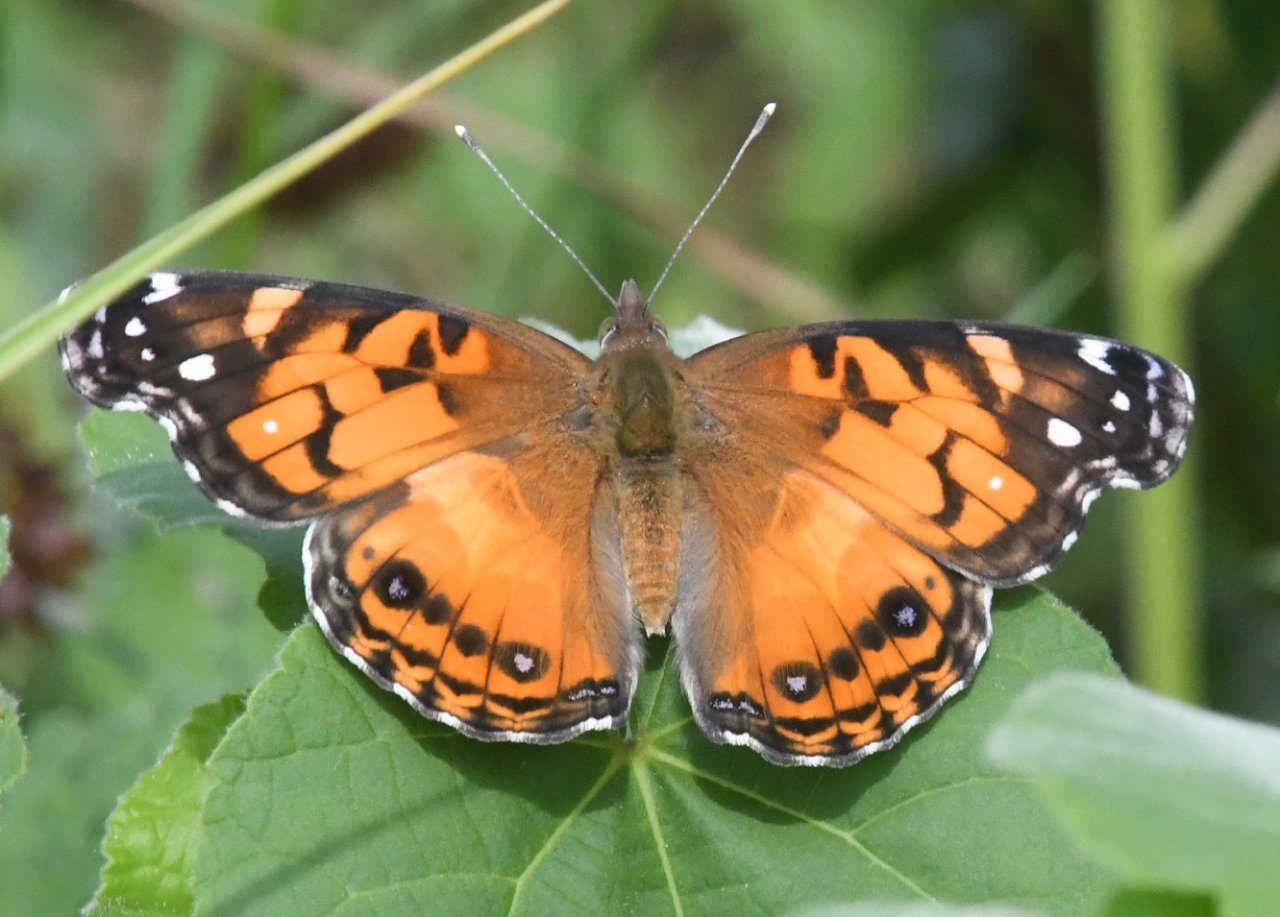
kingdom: Animalia
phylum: Arthropoda
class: Insecta
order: Lepidoptera
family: Nymphalidae
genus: Vanessa
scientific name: Vanessa virginiensis
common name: American Lady
